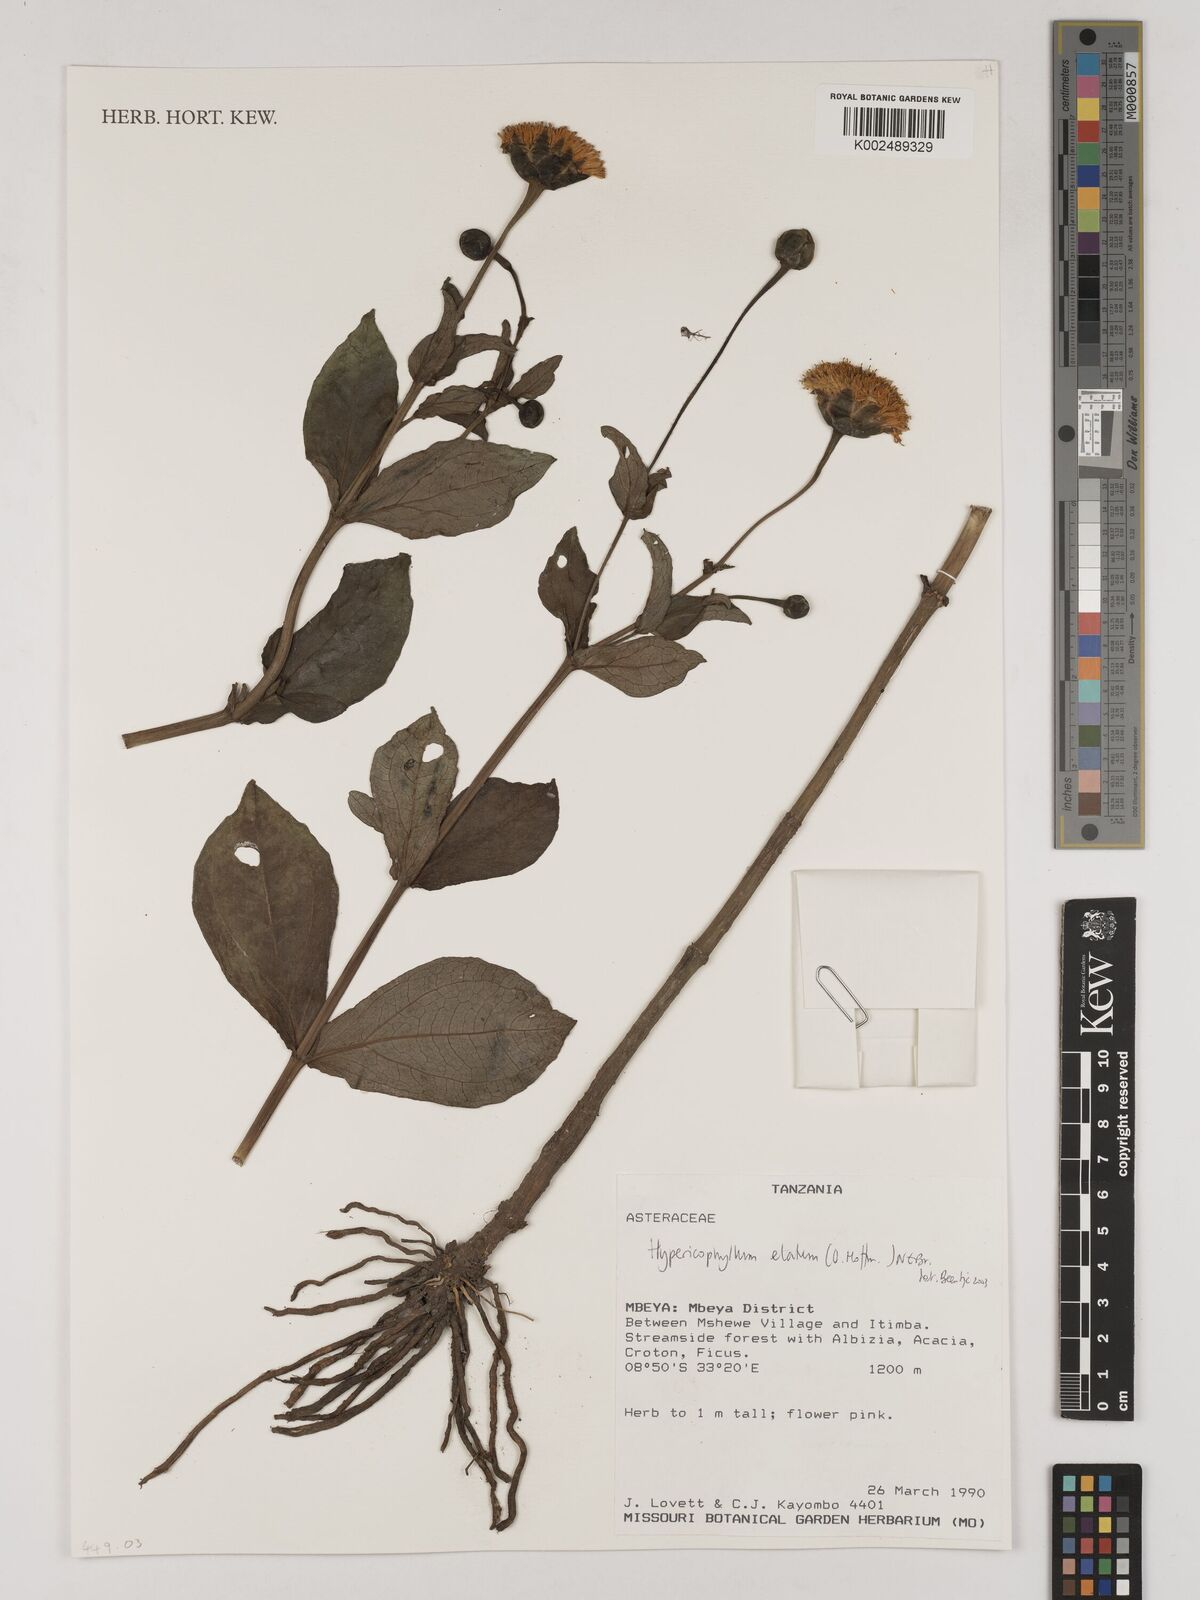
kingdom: Plantae
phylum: Tracheophyta
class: Magnoliopsida
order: Asterales
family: Asteraceae
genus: Hypericophyllum
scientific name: Hypericophyllum elatum
